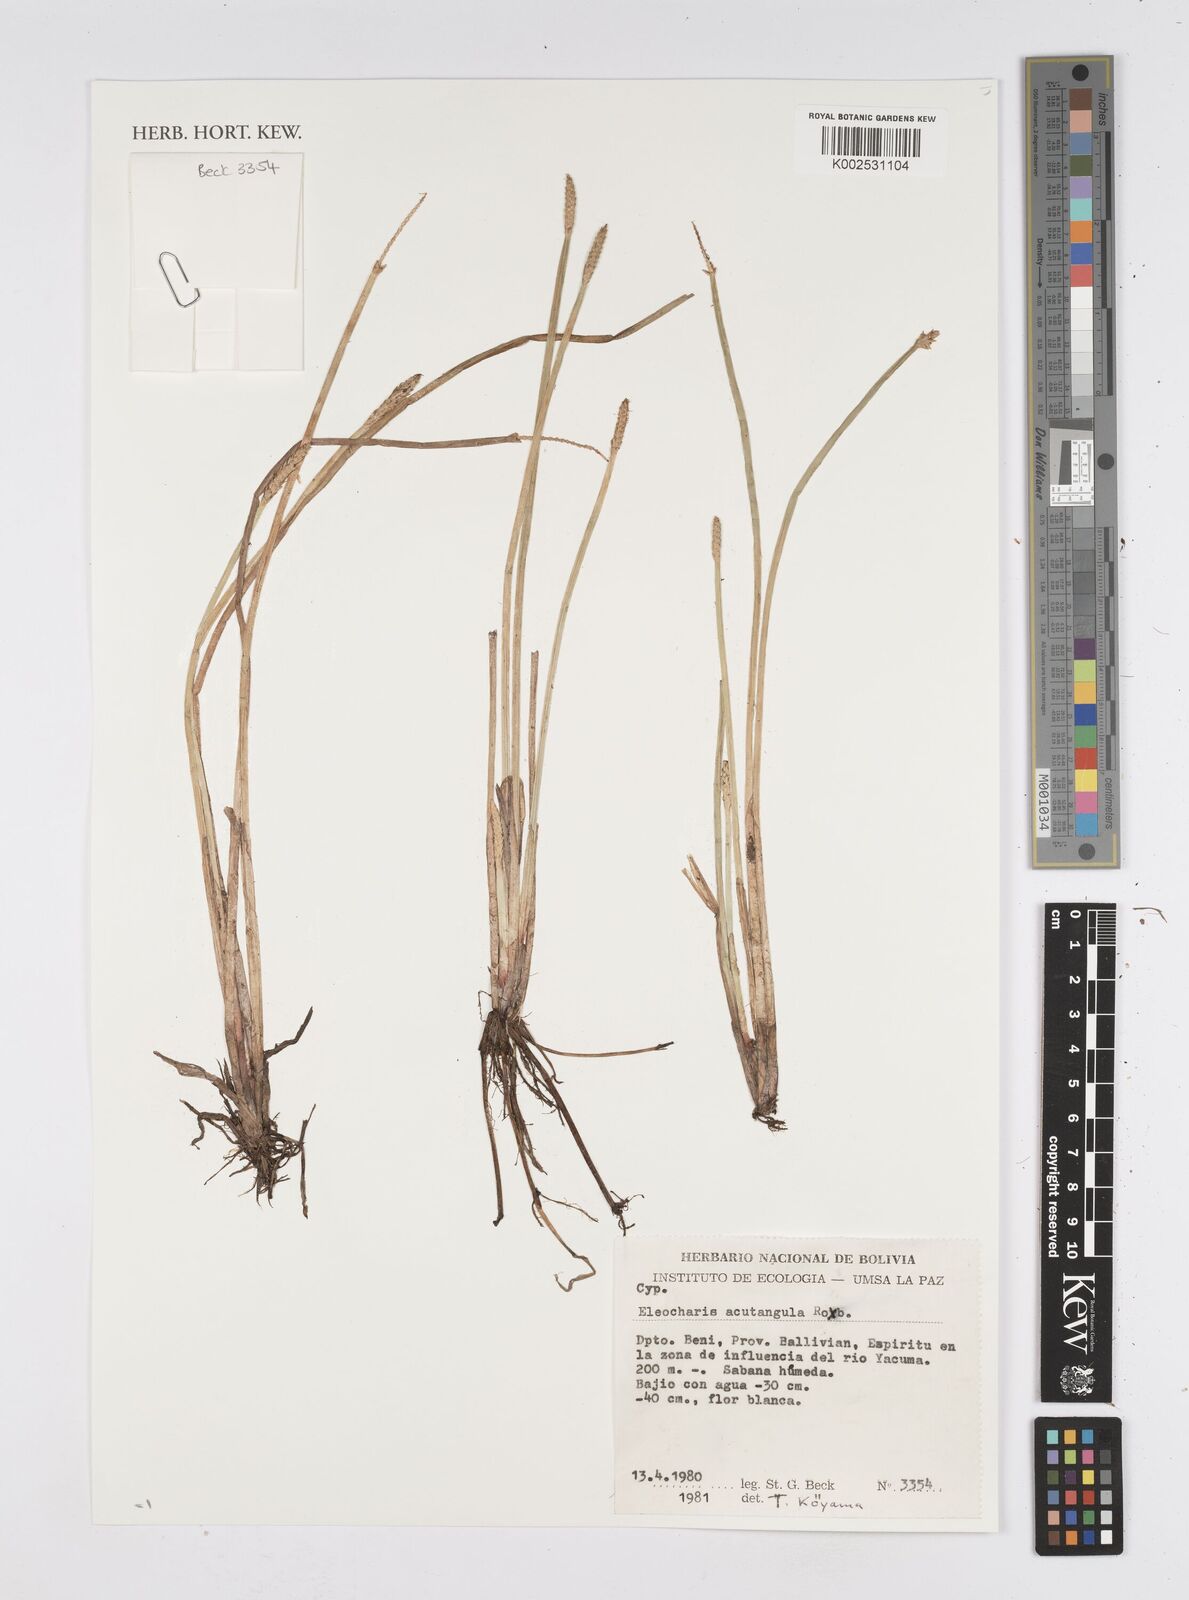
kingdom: Plantae
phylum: Tracheophyta
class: Liliopsida
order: Poales
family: Cyperaceae
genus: Eleocharis
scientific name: Eleocharis acutangula
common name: Acute spikerush
